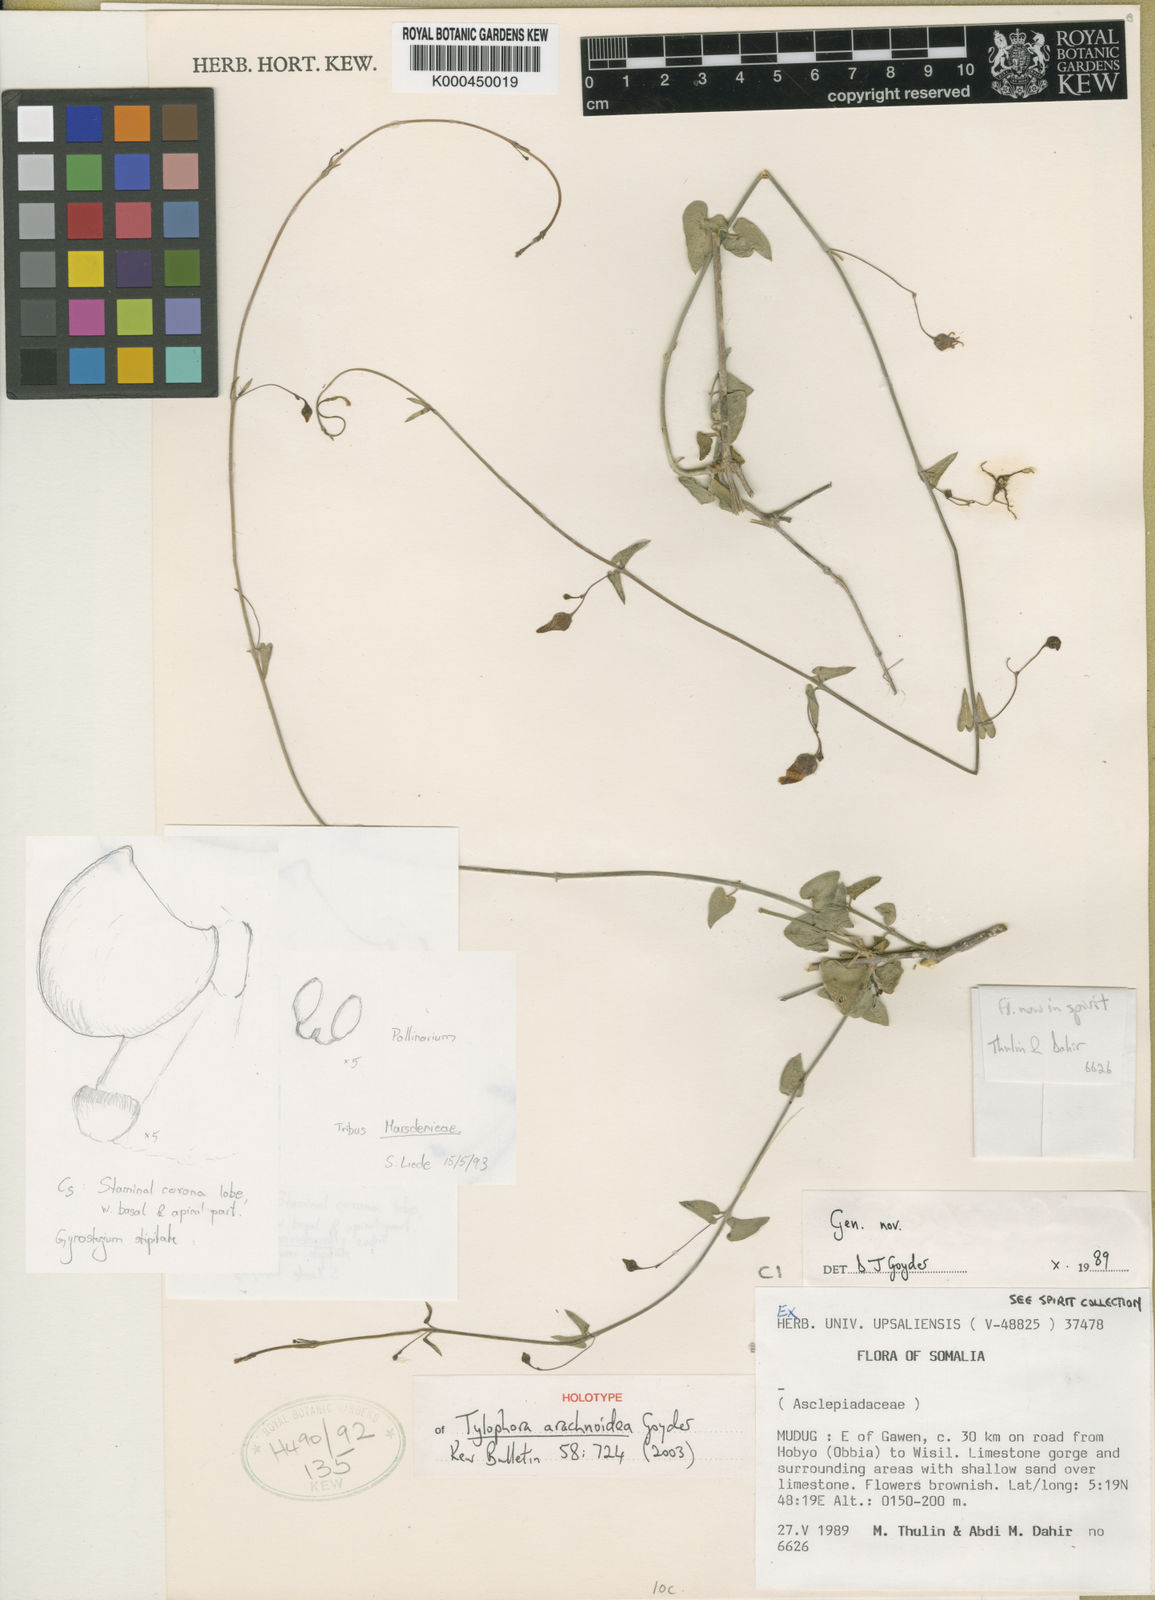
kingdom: Plantae
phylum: Tracheophyta
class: Magnoliopsida
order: Gentianales
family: Apocynaceae
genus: Vincetoxicum
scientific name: Vincetoxicum arachnoideum
